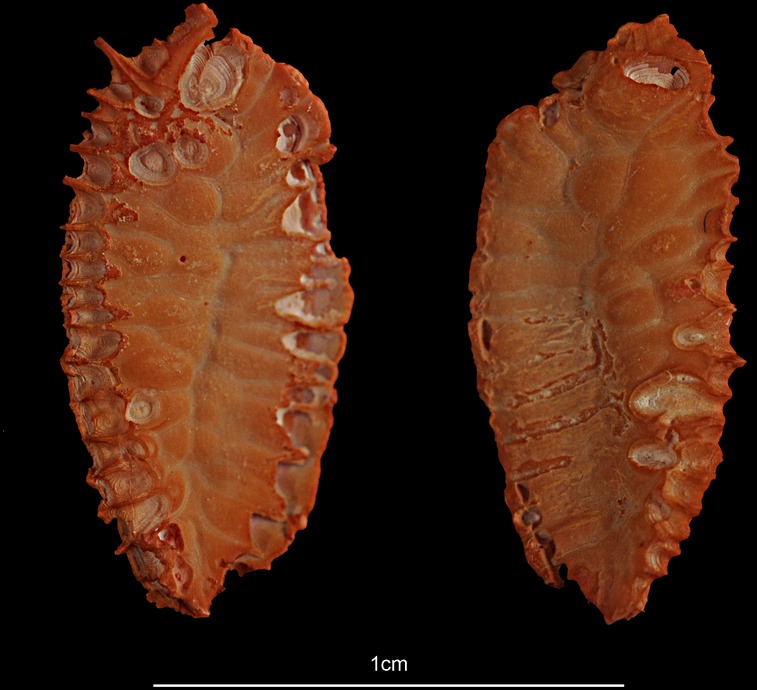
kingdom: Animalia
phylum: Chordata
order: Gadiformes
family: Gadidae
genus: Gadus
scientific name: Gadus morhua
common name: Atlantic cod
